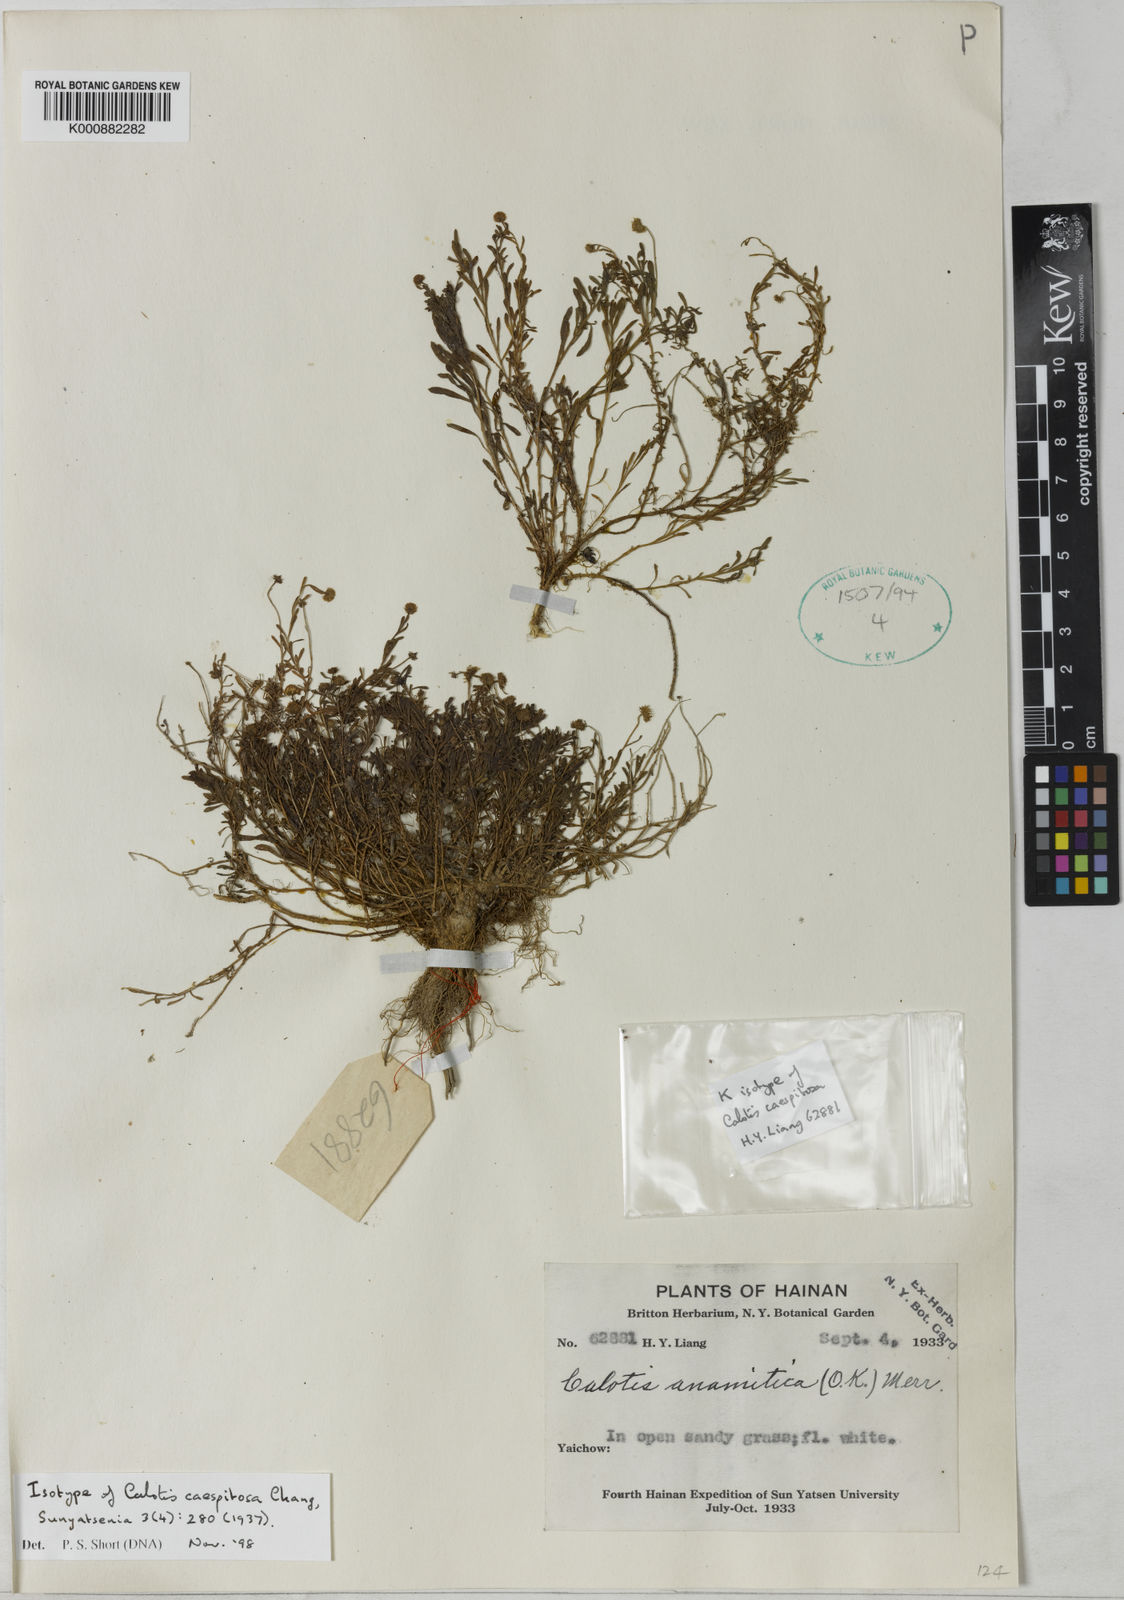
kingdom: Plantae
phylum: Tracheophyta
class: Magnoliopsida
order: Asterales
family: Asteraceae
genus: Calotis
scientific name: Calotis anamitica
